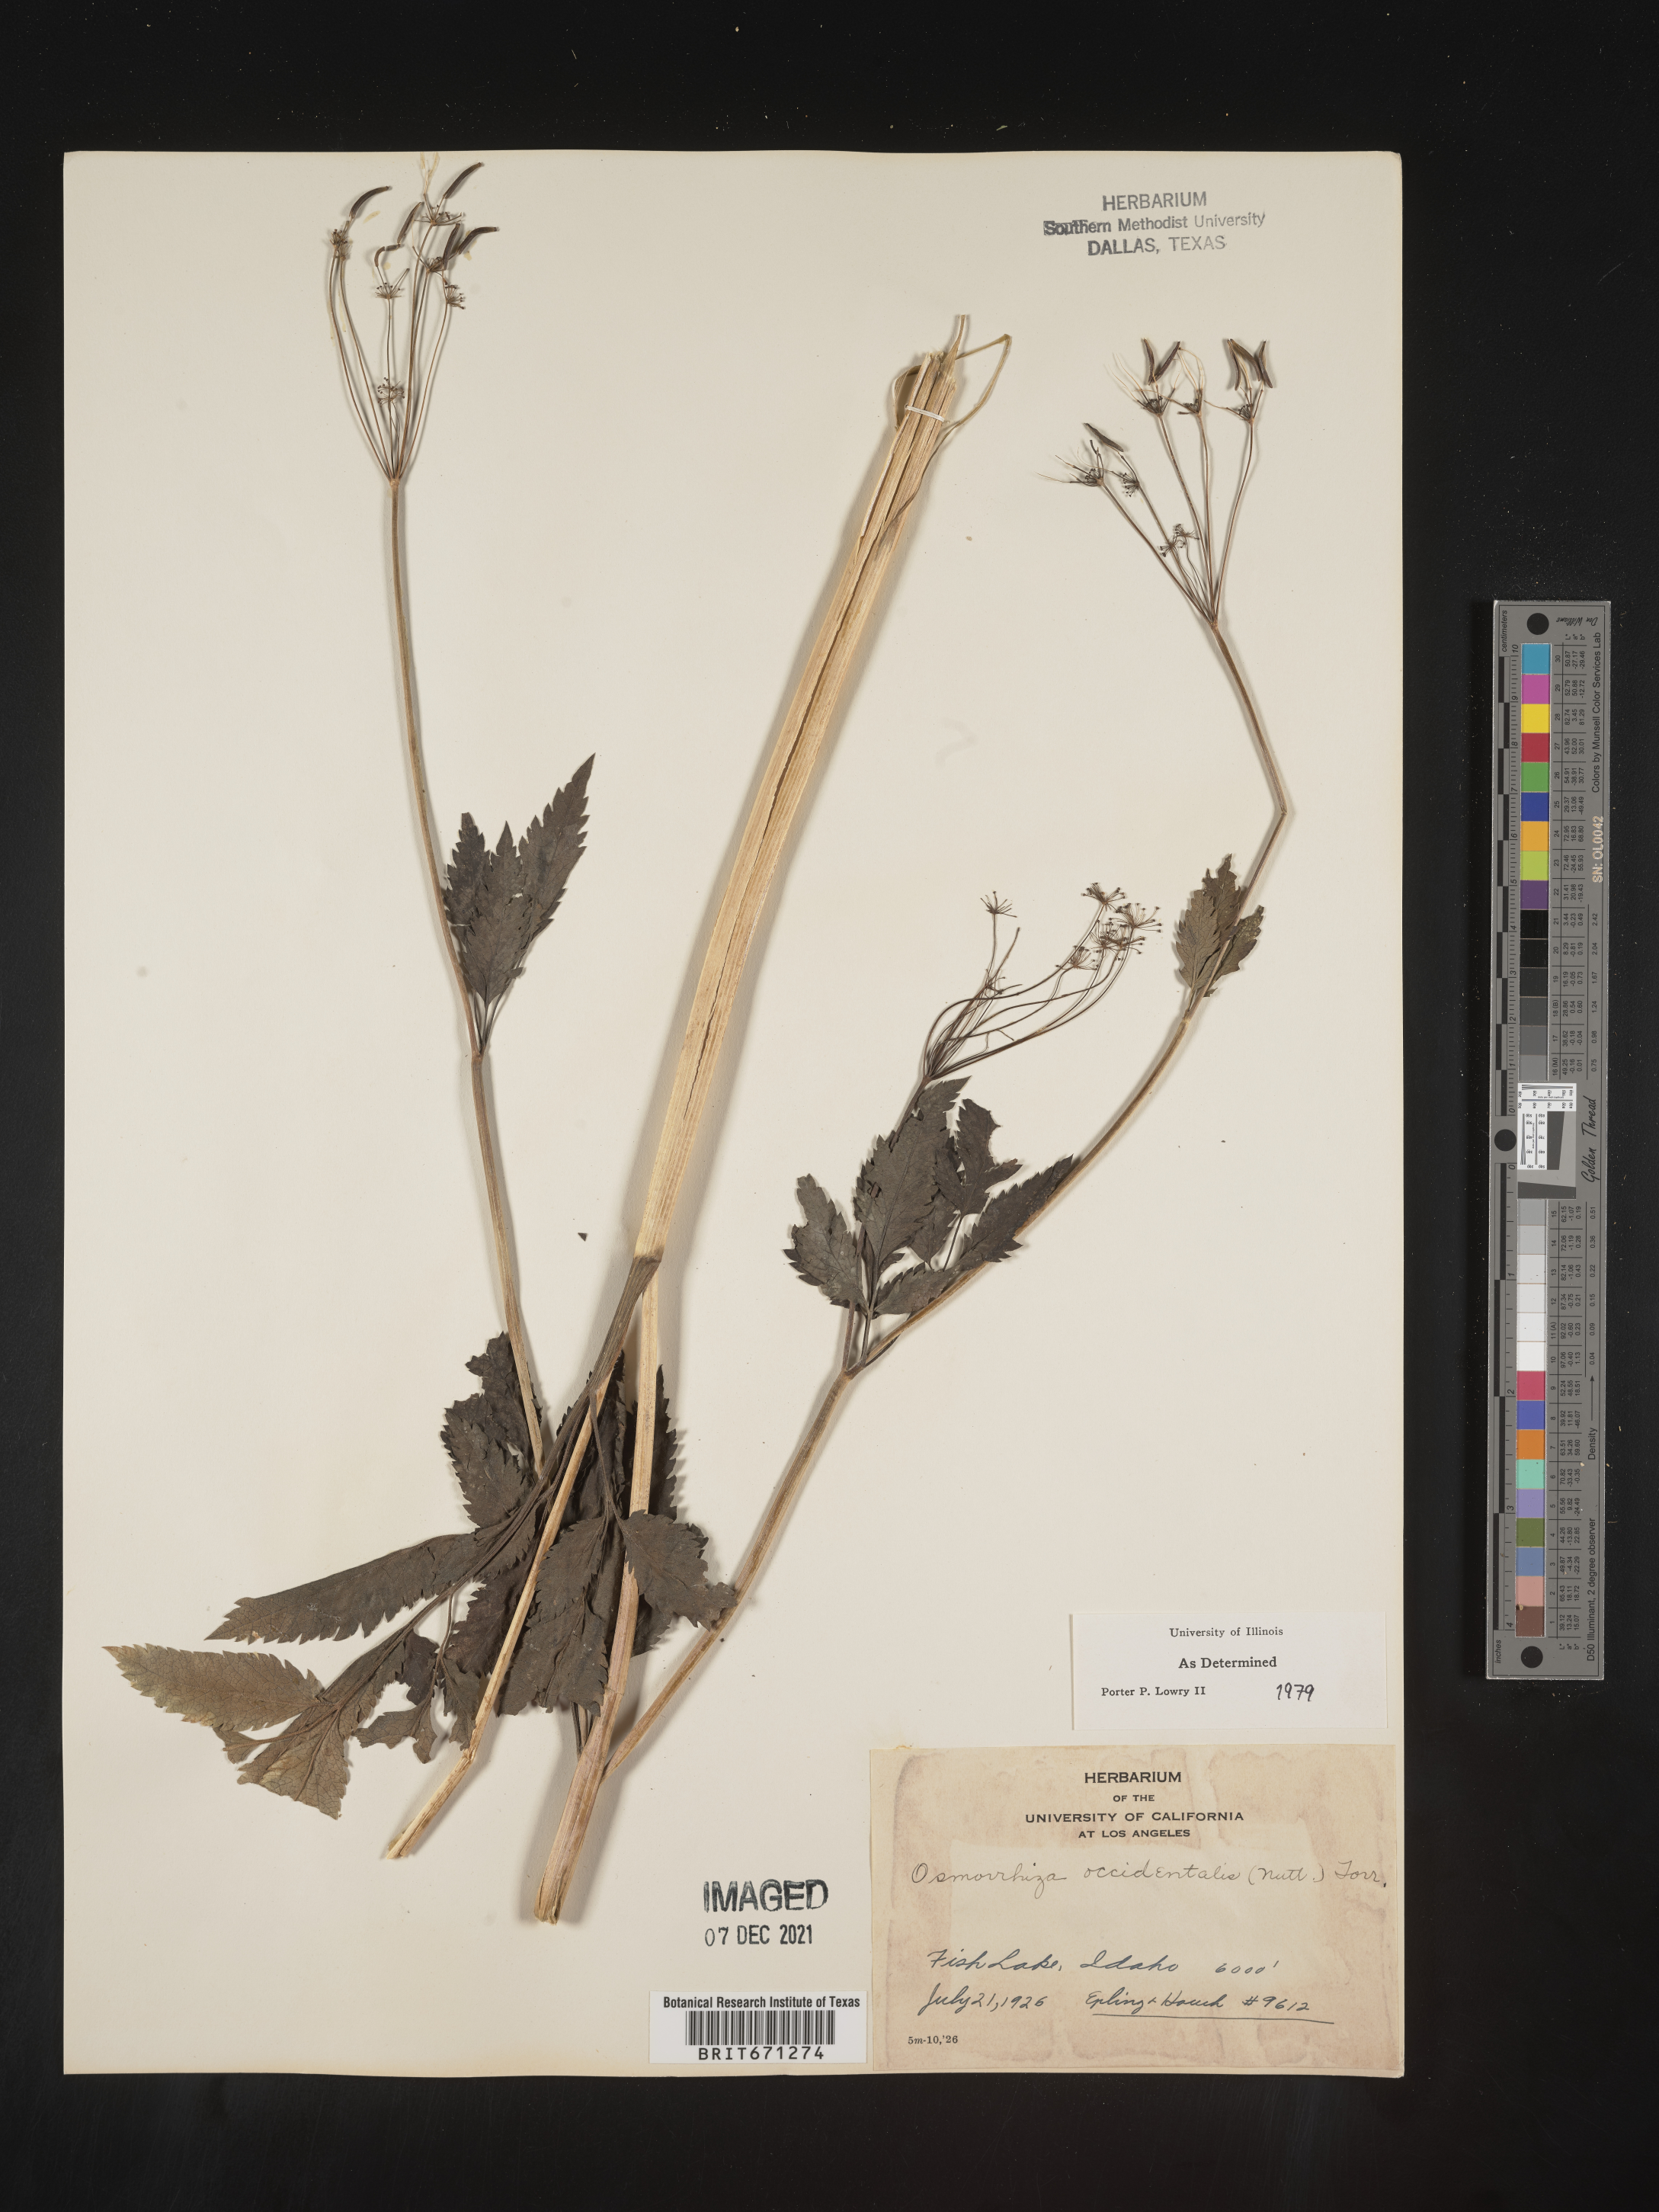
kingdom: Plantae
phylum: Tracheophyta
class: Magnoliopsida
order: Apiales
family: Apiaceae
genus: Osmorhiza
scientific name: Osmorhiza occidentalis
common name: Western sweet cicely
